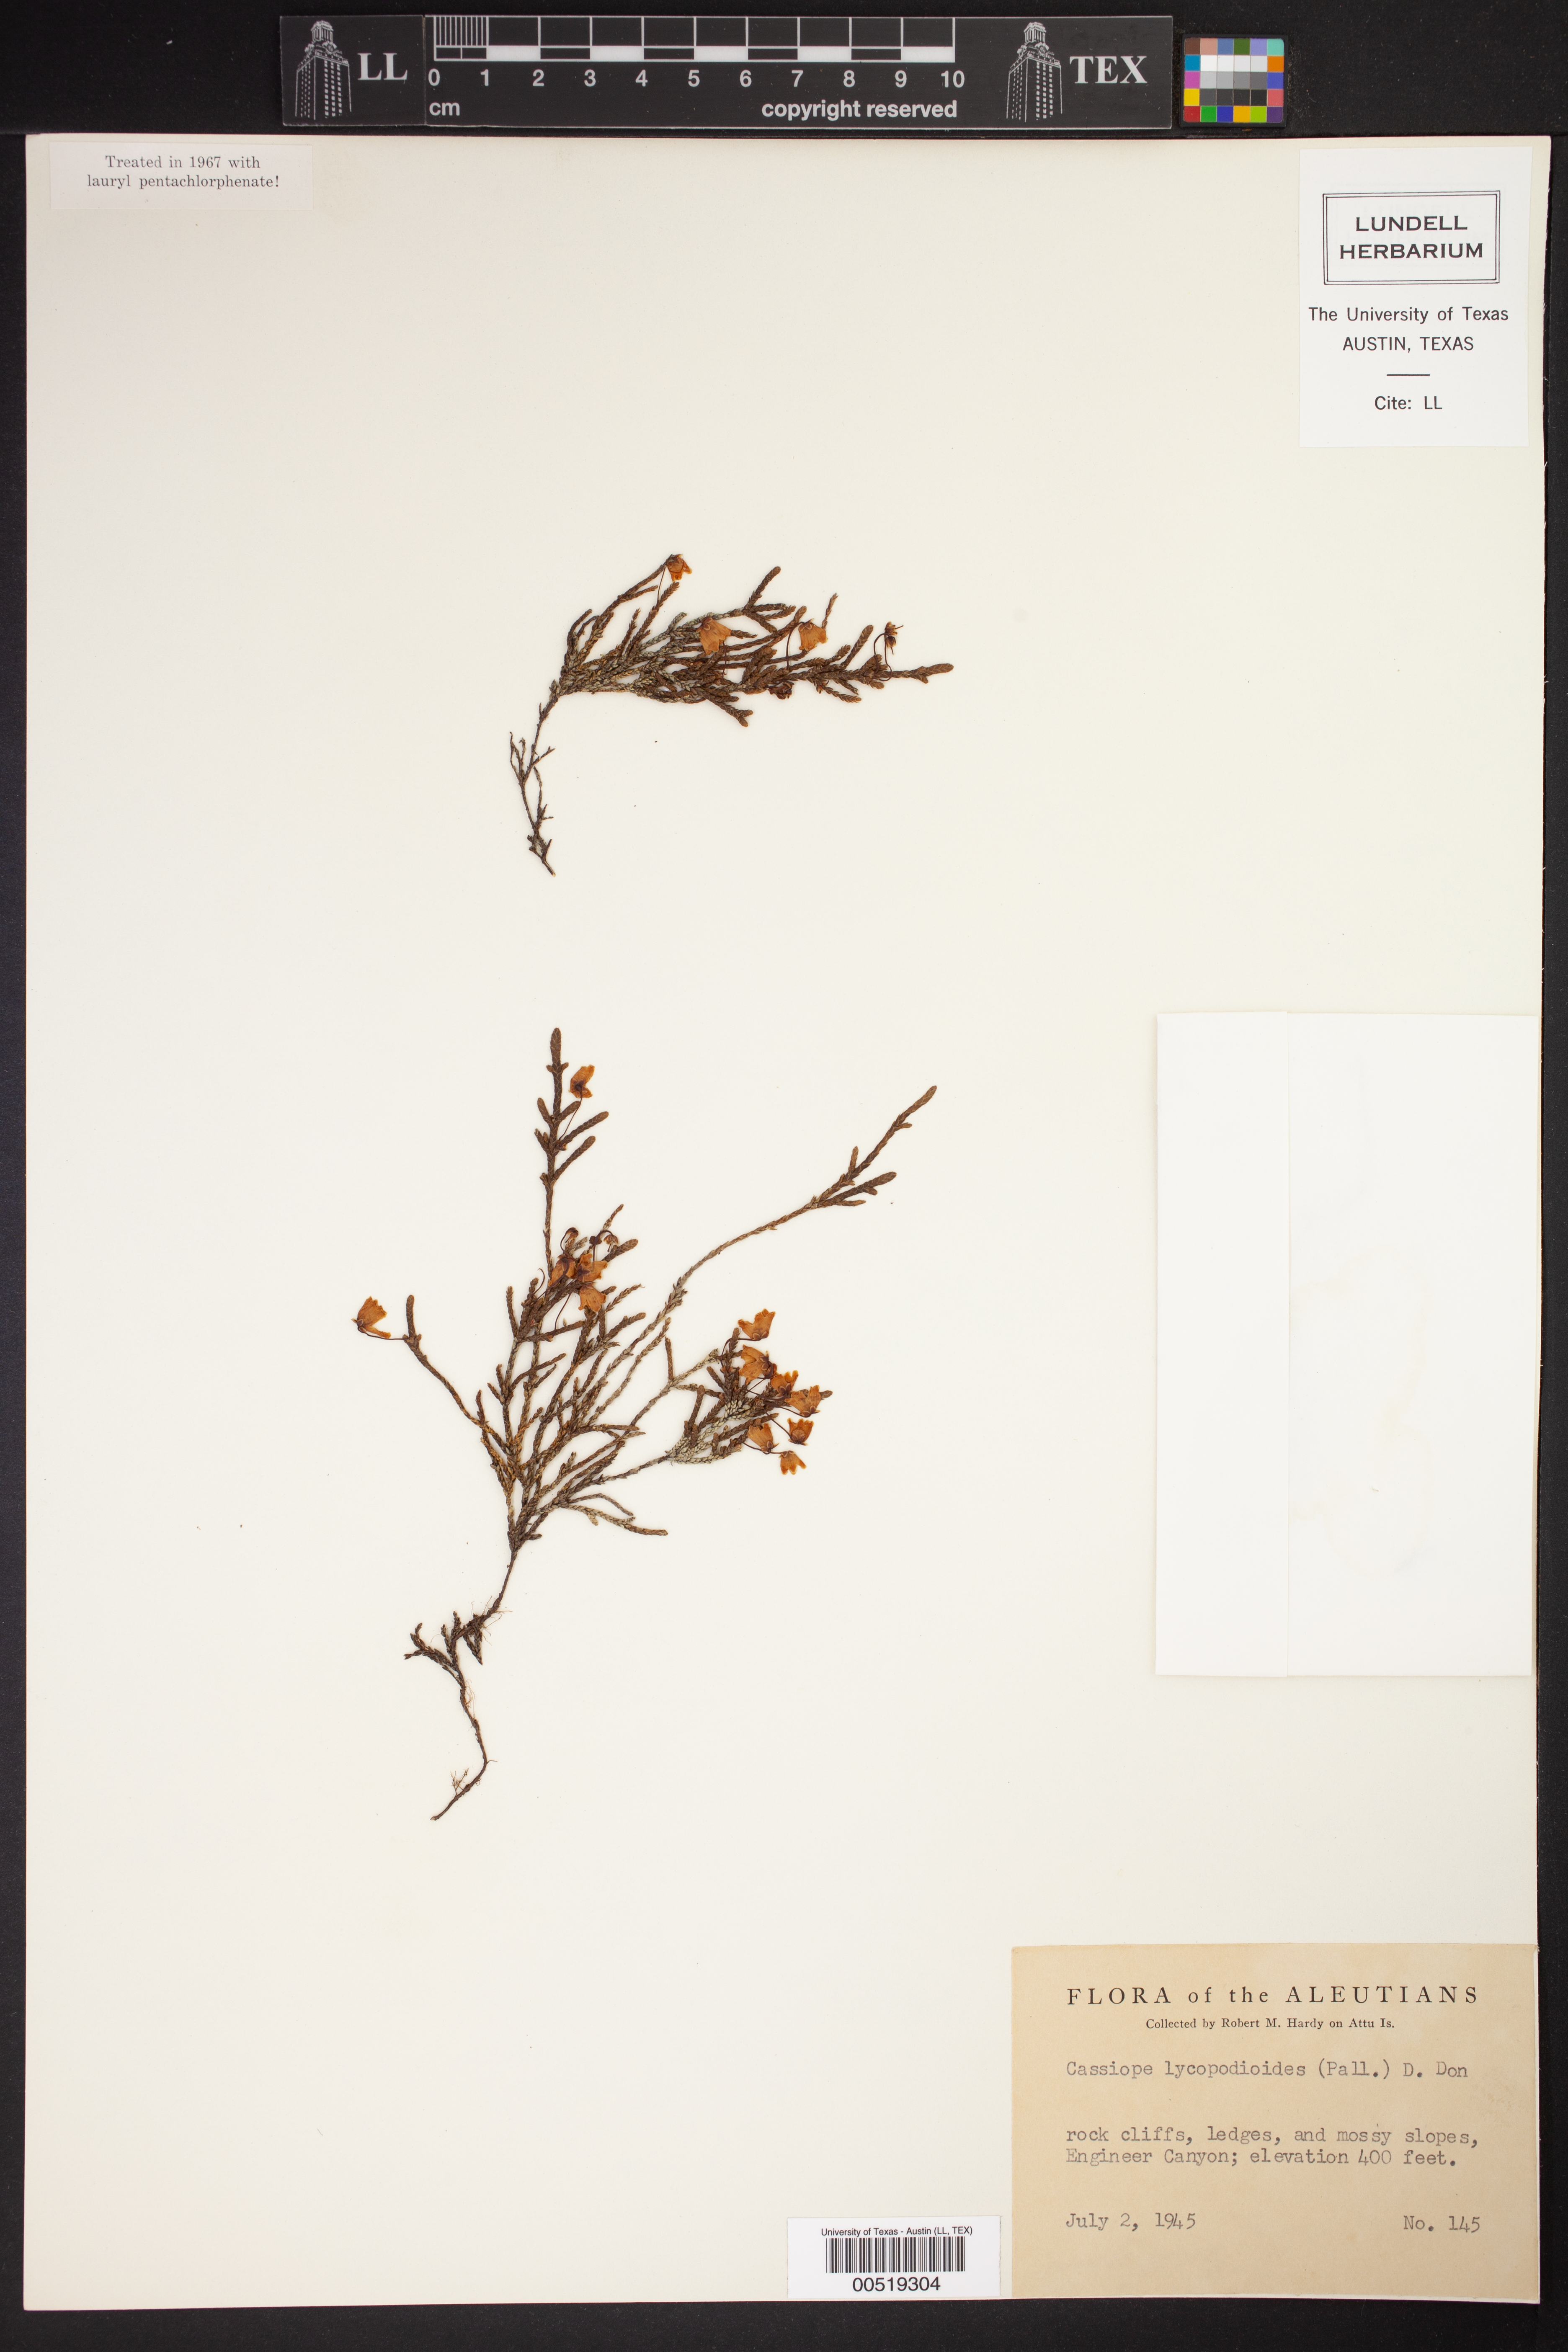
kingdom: Plantae
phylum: Tracheophyta
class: Magnoliopsida
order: Ericales
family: Ericaceae
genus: Cassiope
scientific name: Cassiope lycopodioides
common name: Clubmoss mountain heather
